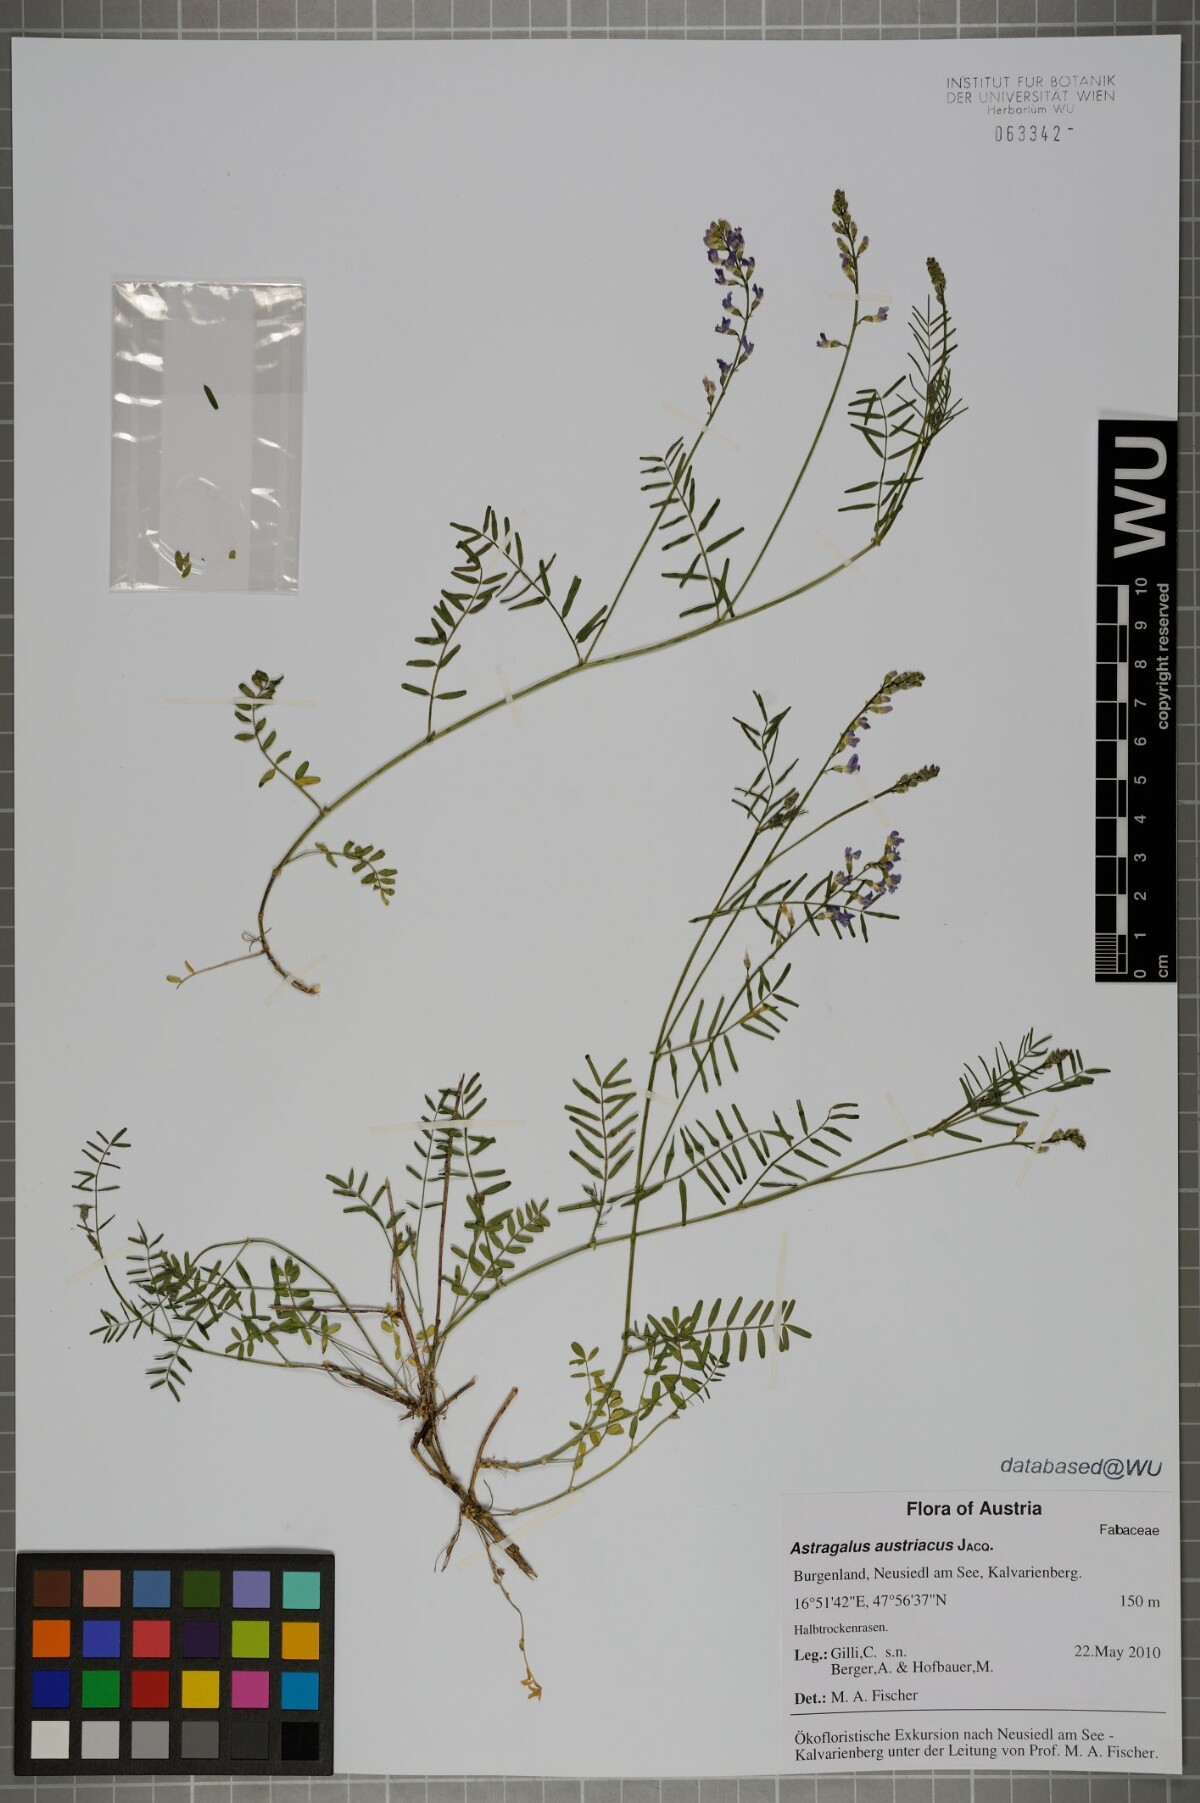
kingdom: Plantae
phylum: Tracheophyta
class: Magnoliopsida
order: Fabales
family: Fabaceae
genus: Astragalus
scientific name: Astragalus austriacus
